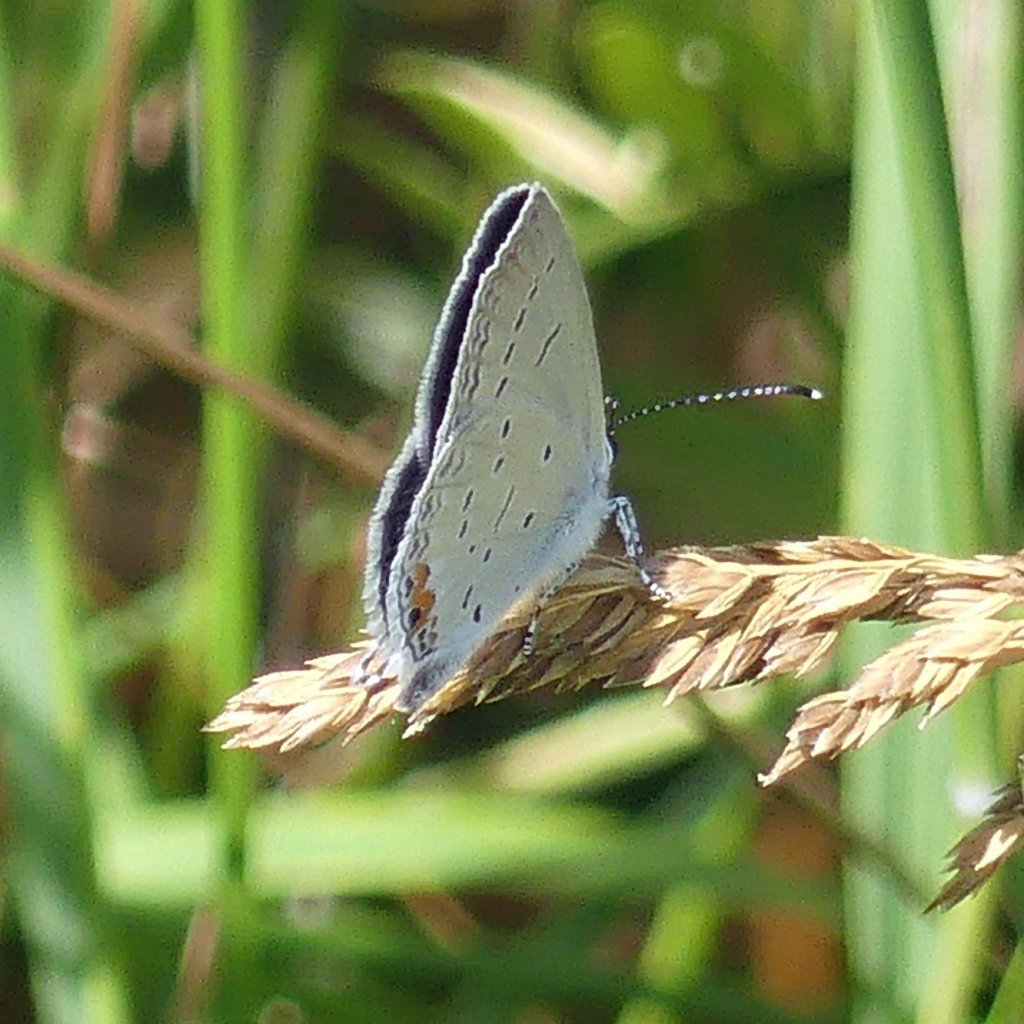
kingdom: Animalia
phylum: Arthropoda
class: Insecta
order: Lepidoptera
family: Lycaenidae
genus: Elkalyce
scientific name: Elkalyce comyntas
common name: Eastern Tailed-Blue
